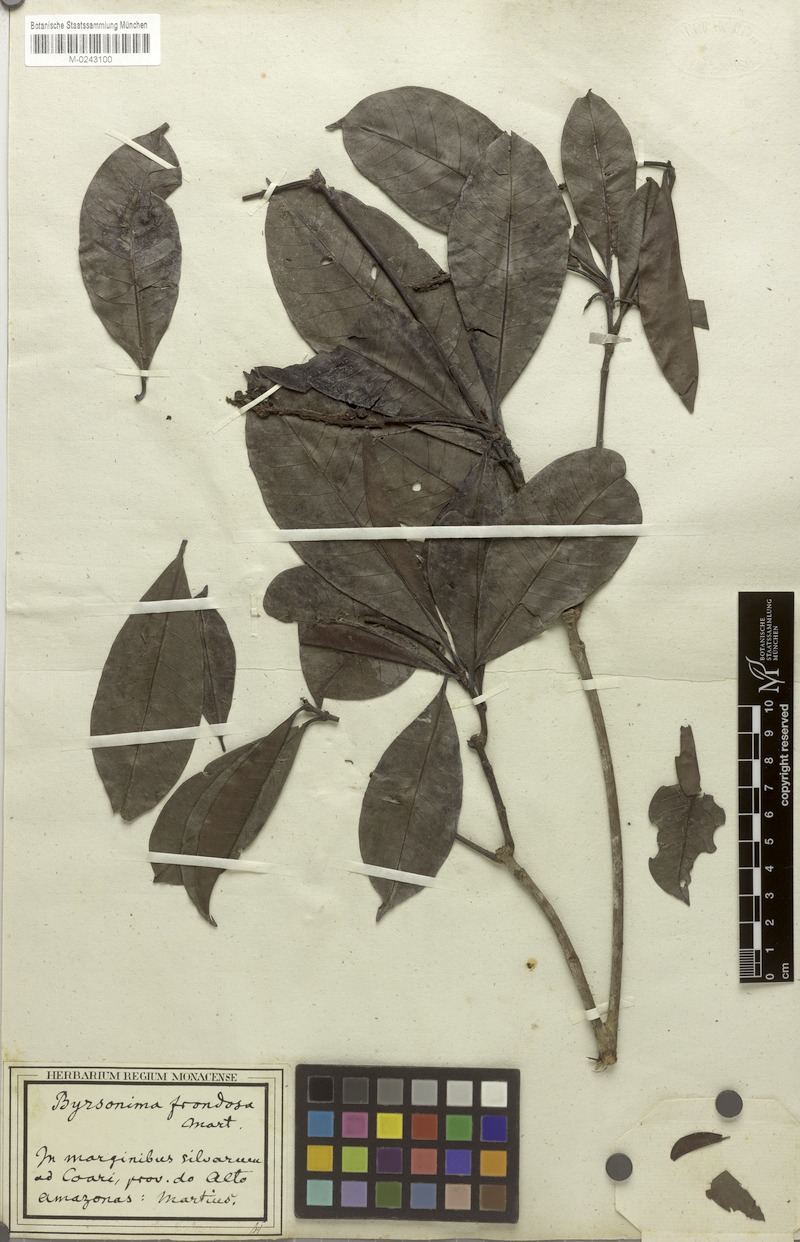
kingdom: Plantae
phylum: Tracheophyta
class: Magnoliopsida
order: Malpighiales
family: Malpighiaceae
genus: Byrsonima
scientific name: Byrsonima frondosa
